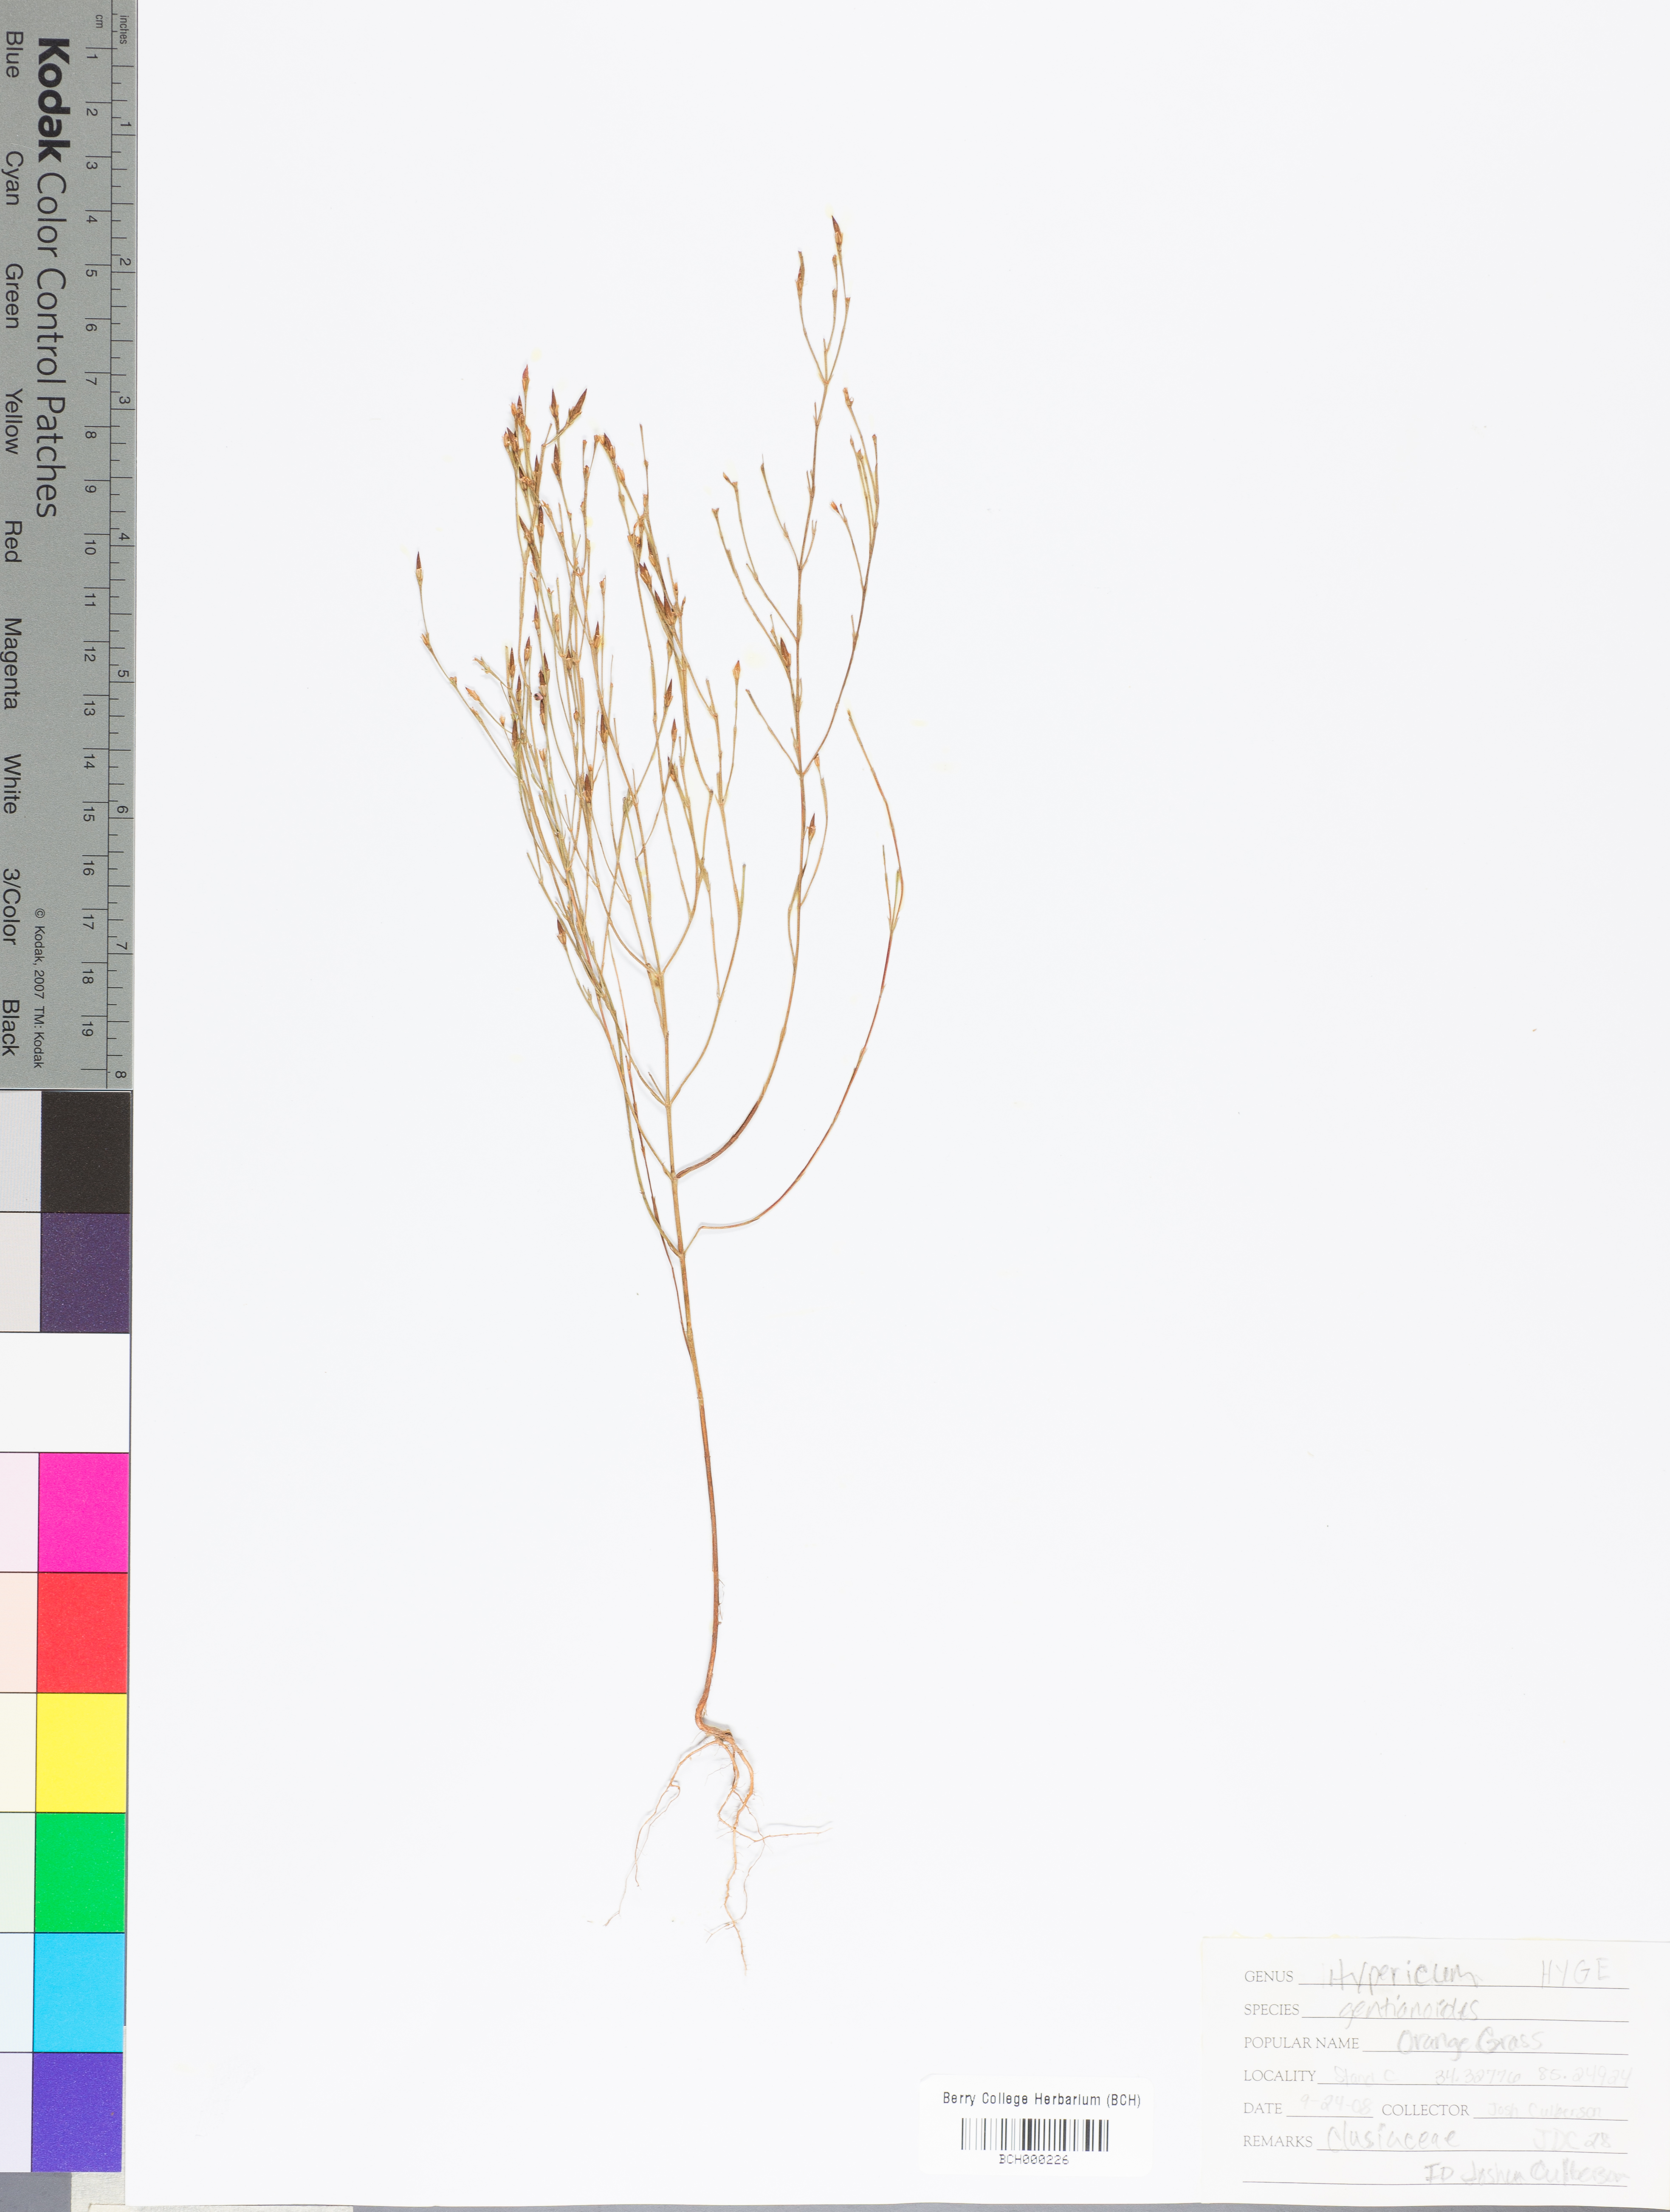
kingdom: Plantae
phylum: Tracheophyta
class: Magnoliopsida
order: Malpighiales
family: Hypericaceae
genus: Hypericum
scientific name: Hypericum gentianoides
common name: Gentian-leaved st. john's-wort
